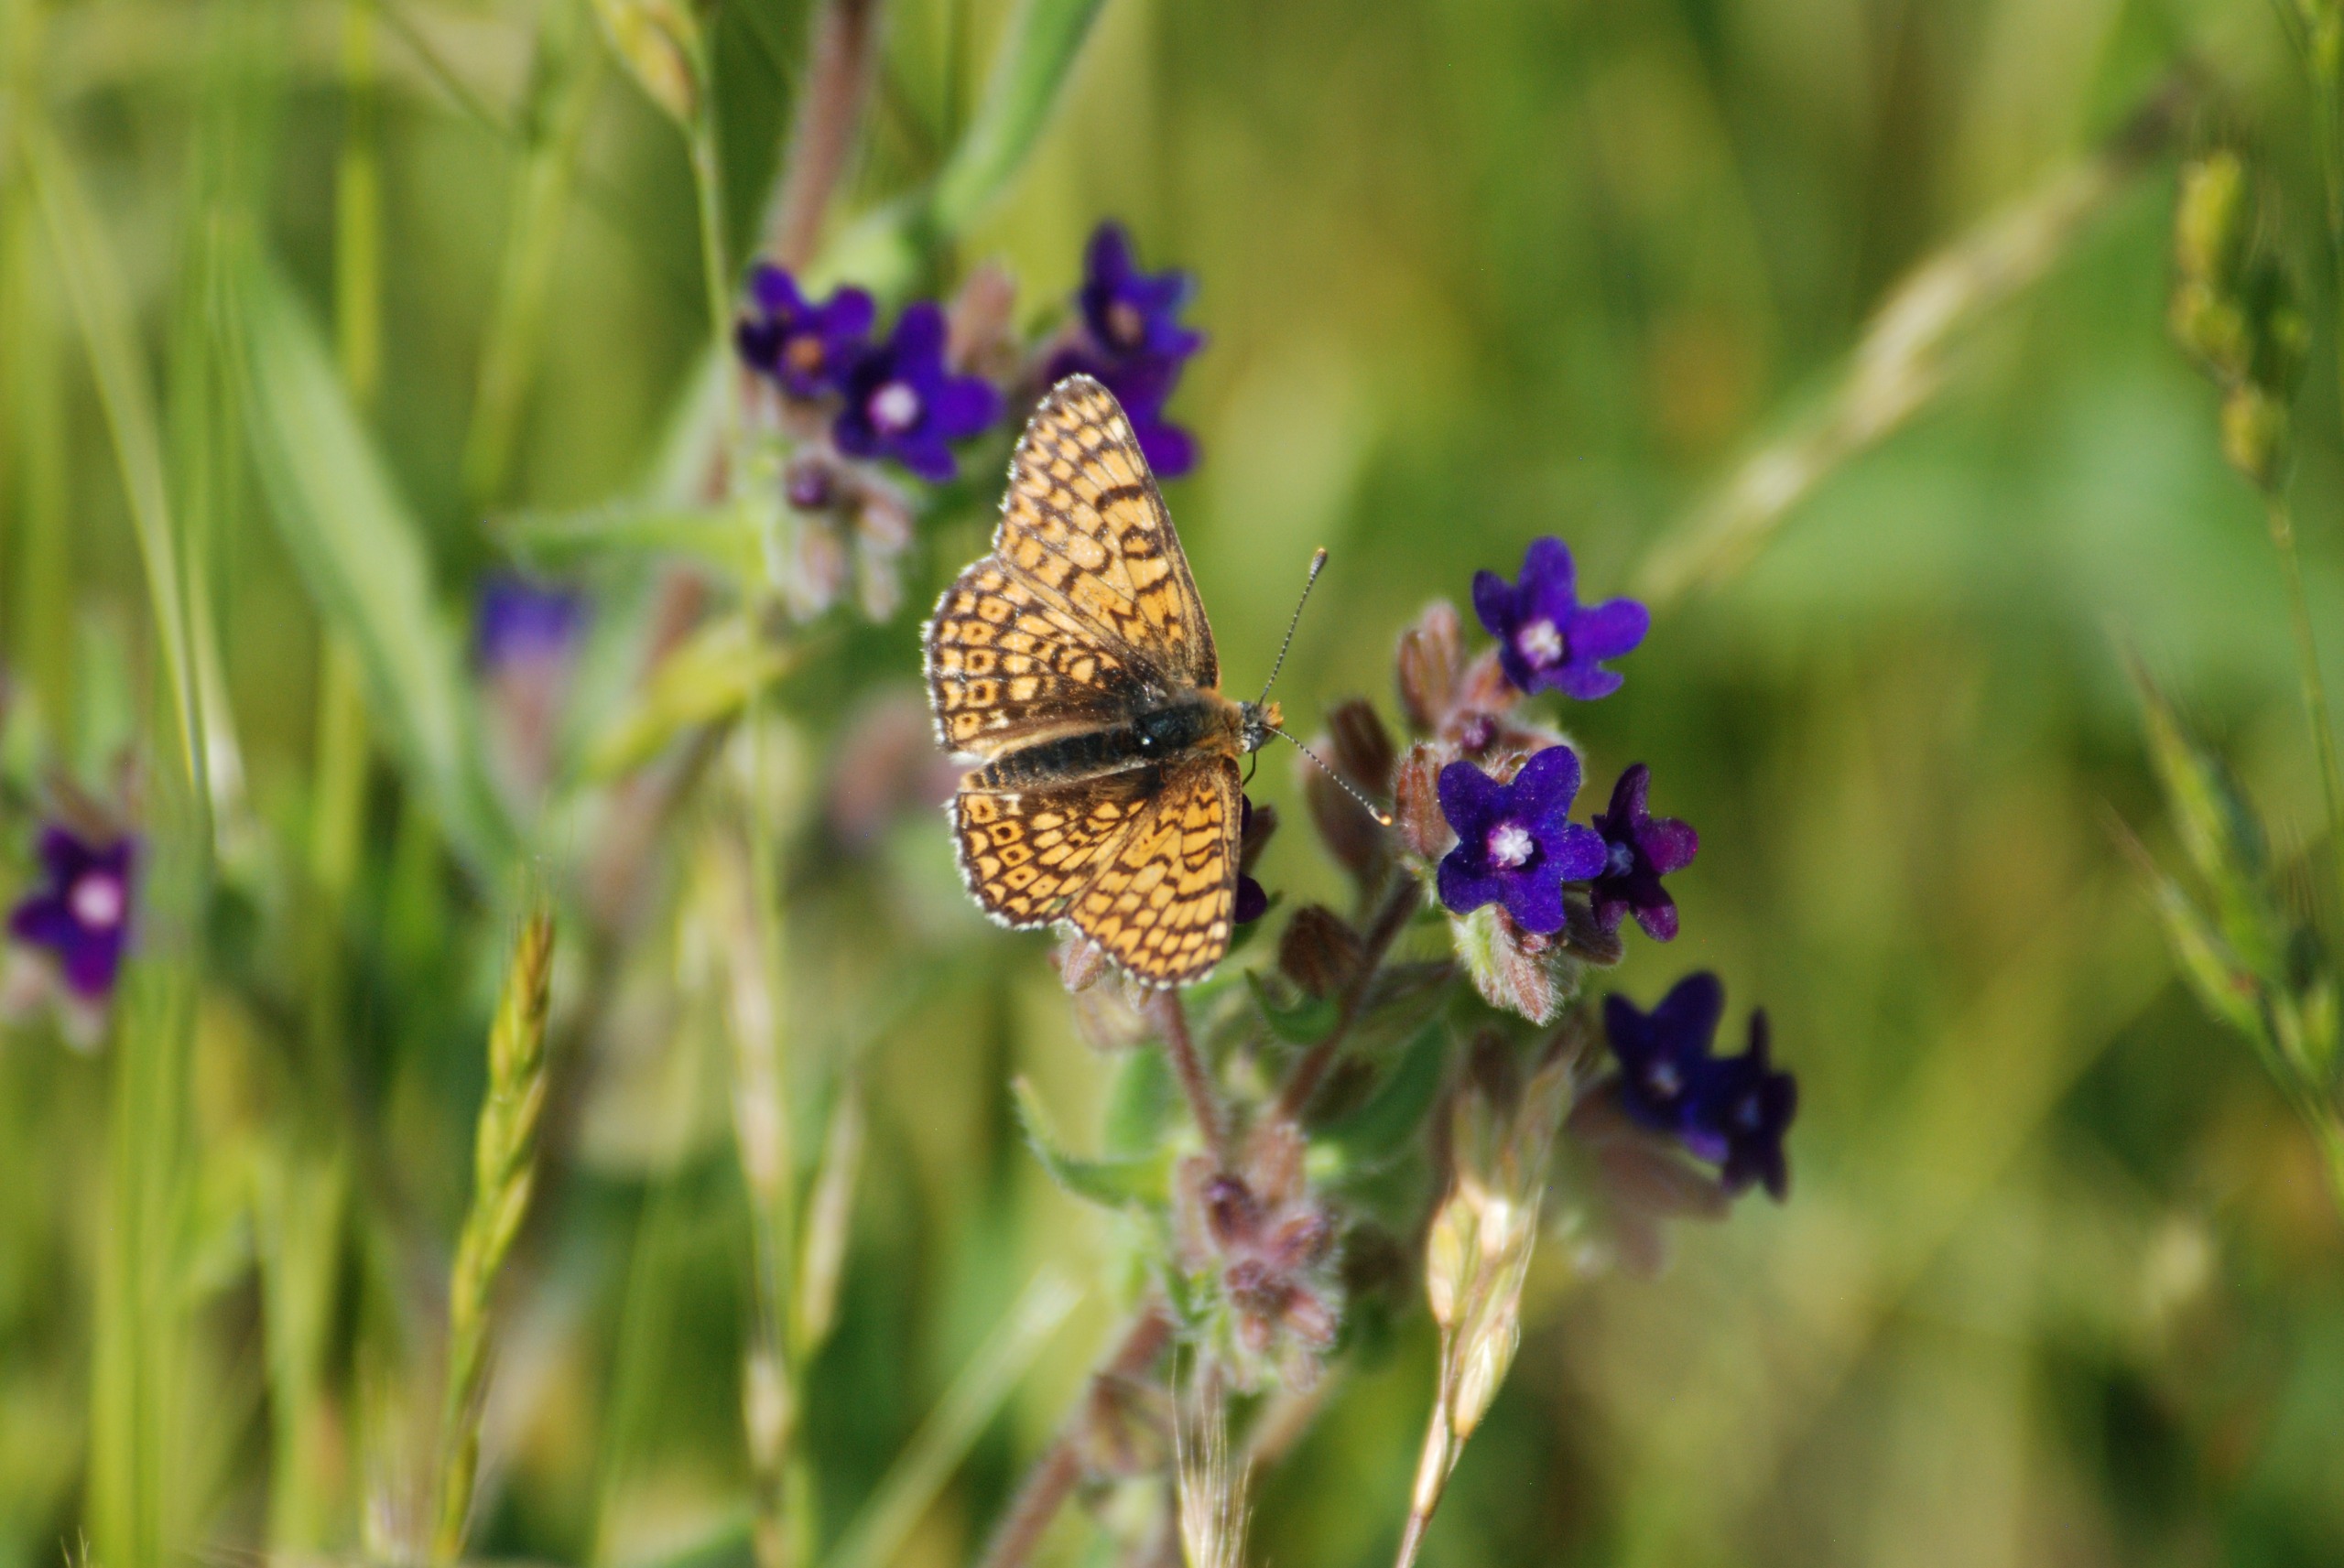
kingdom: Animalia
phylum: Arthropoda
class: Insecta
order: Lepidoptera
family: Nymphalidae
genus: Melitaea
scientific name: Melitaea cinxia
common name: Okkergul pletvinge
